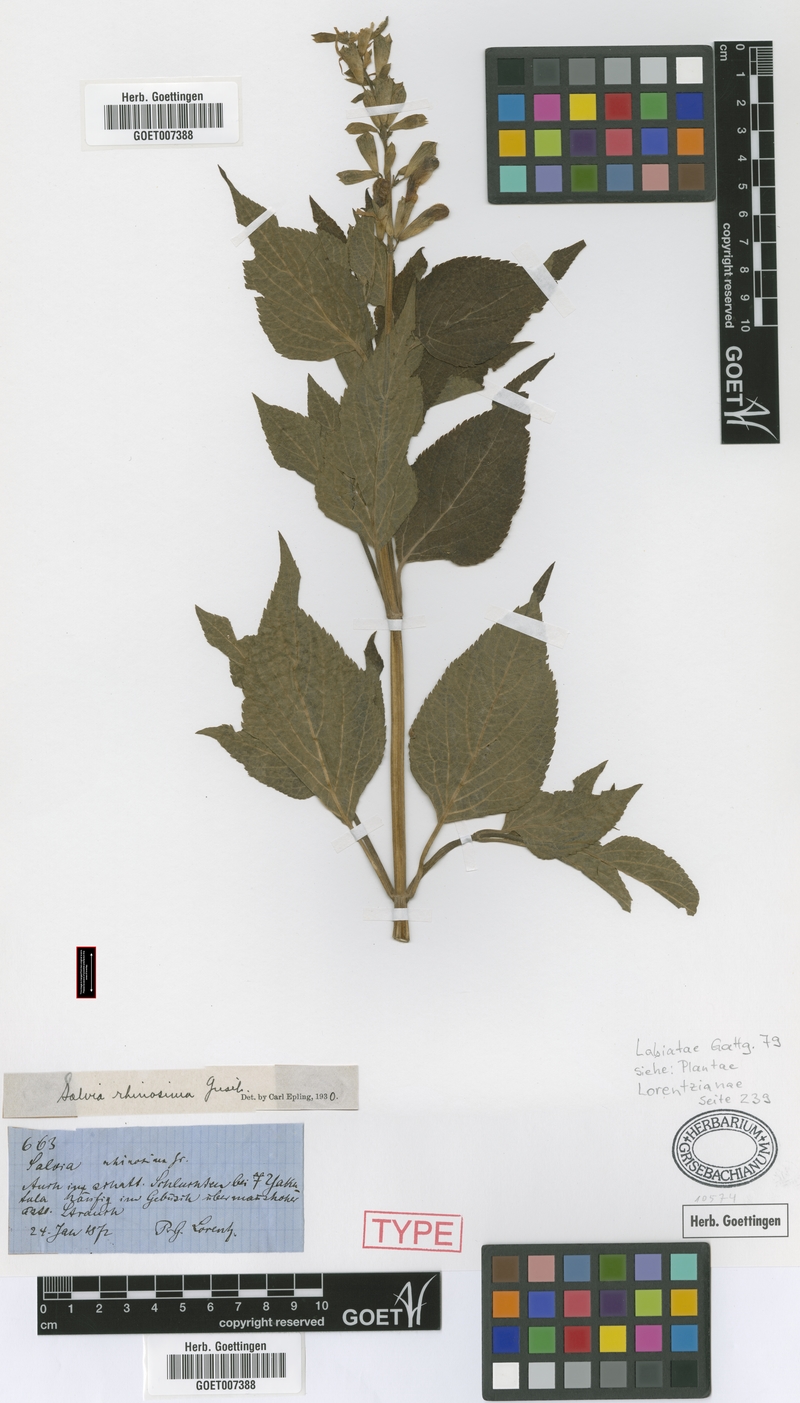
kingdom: Plantae
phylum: Tracheophyta
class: Magnoliopsida
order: Lamiales
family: Lamiaceae
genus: Salvia
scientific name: Salvia rhinosima
